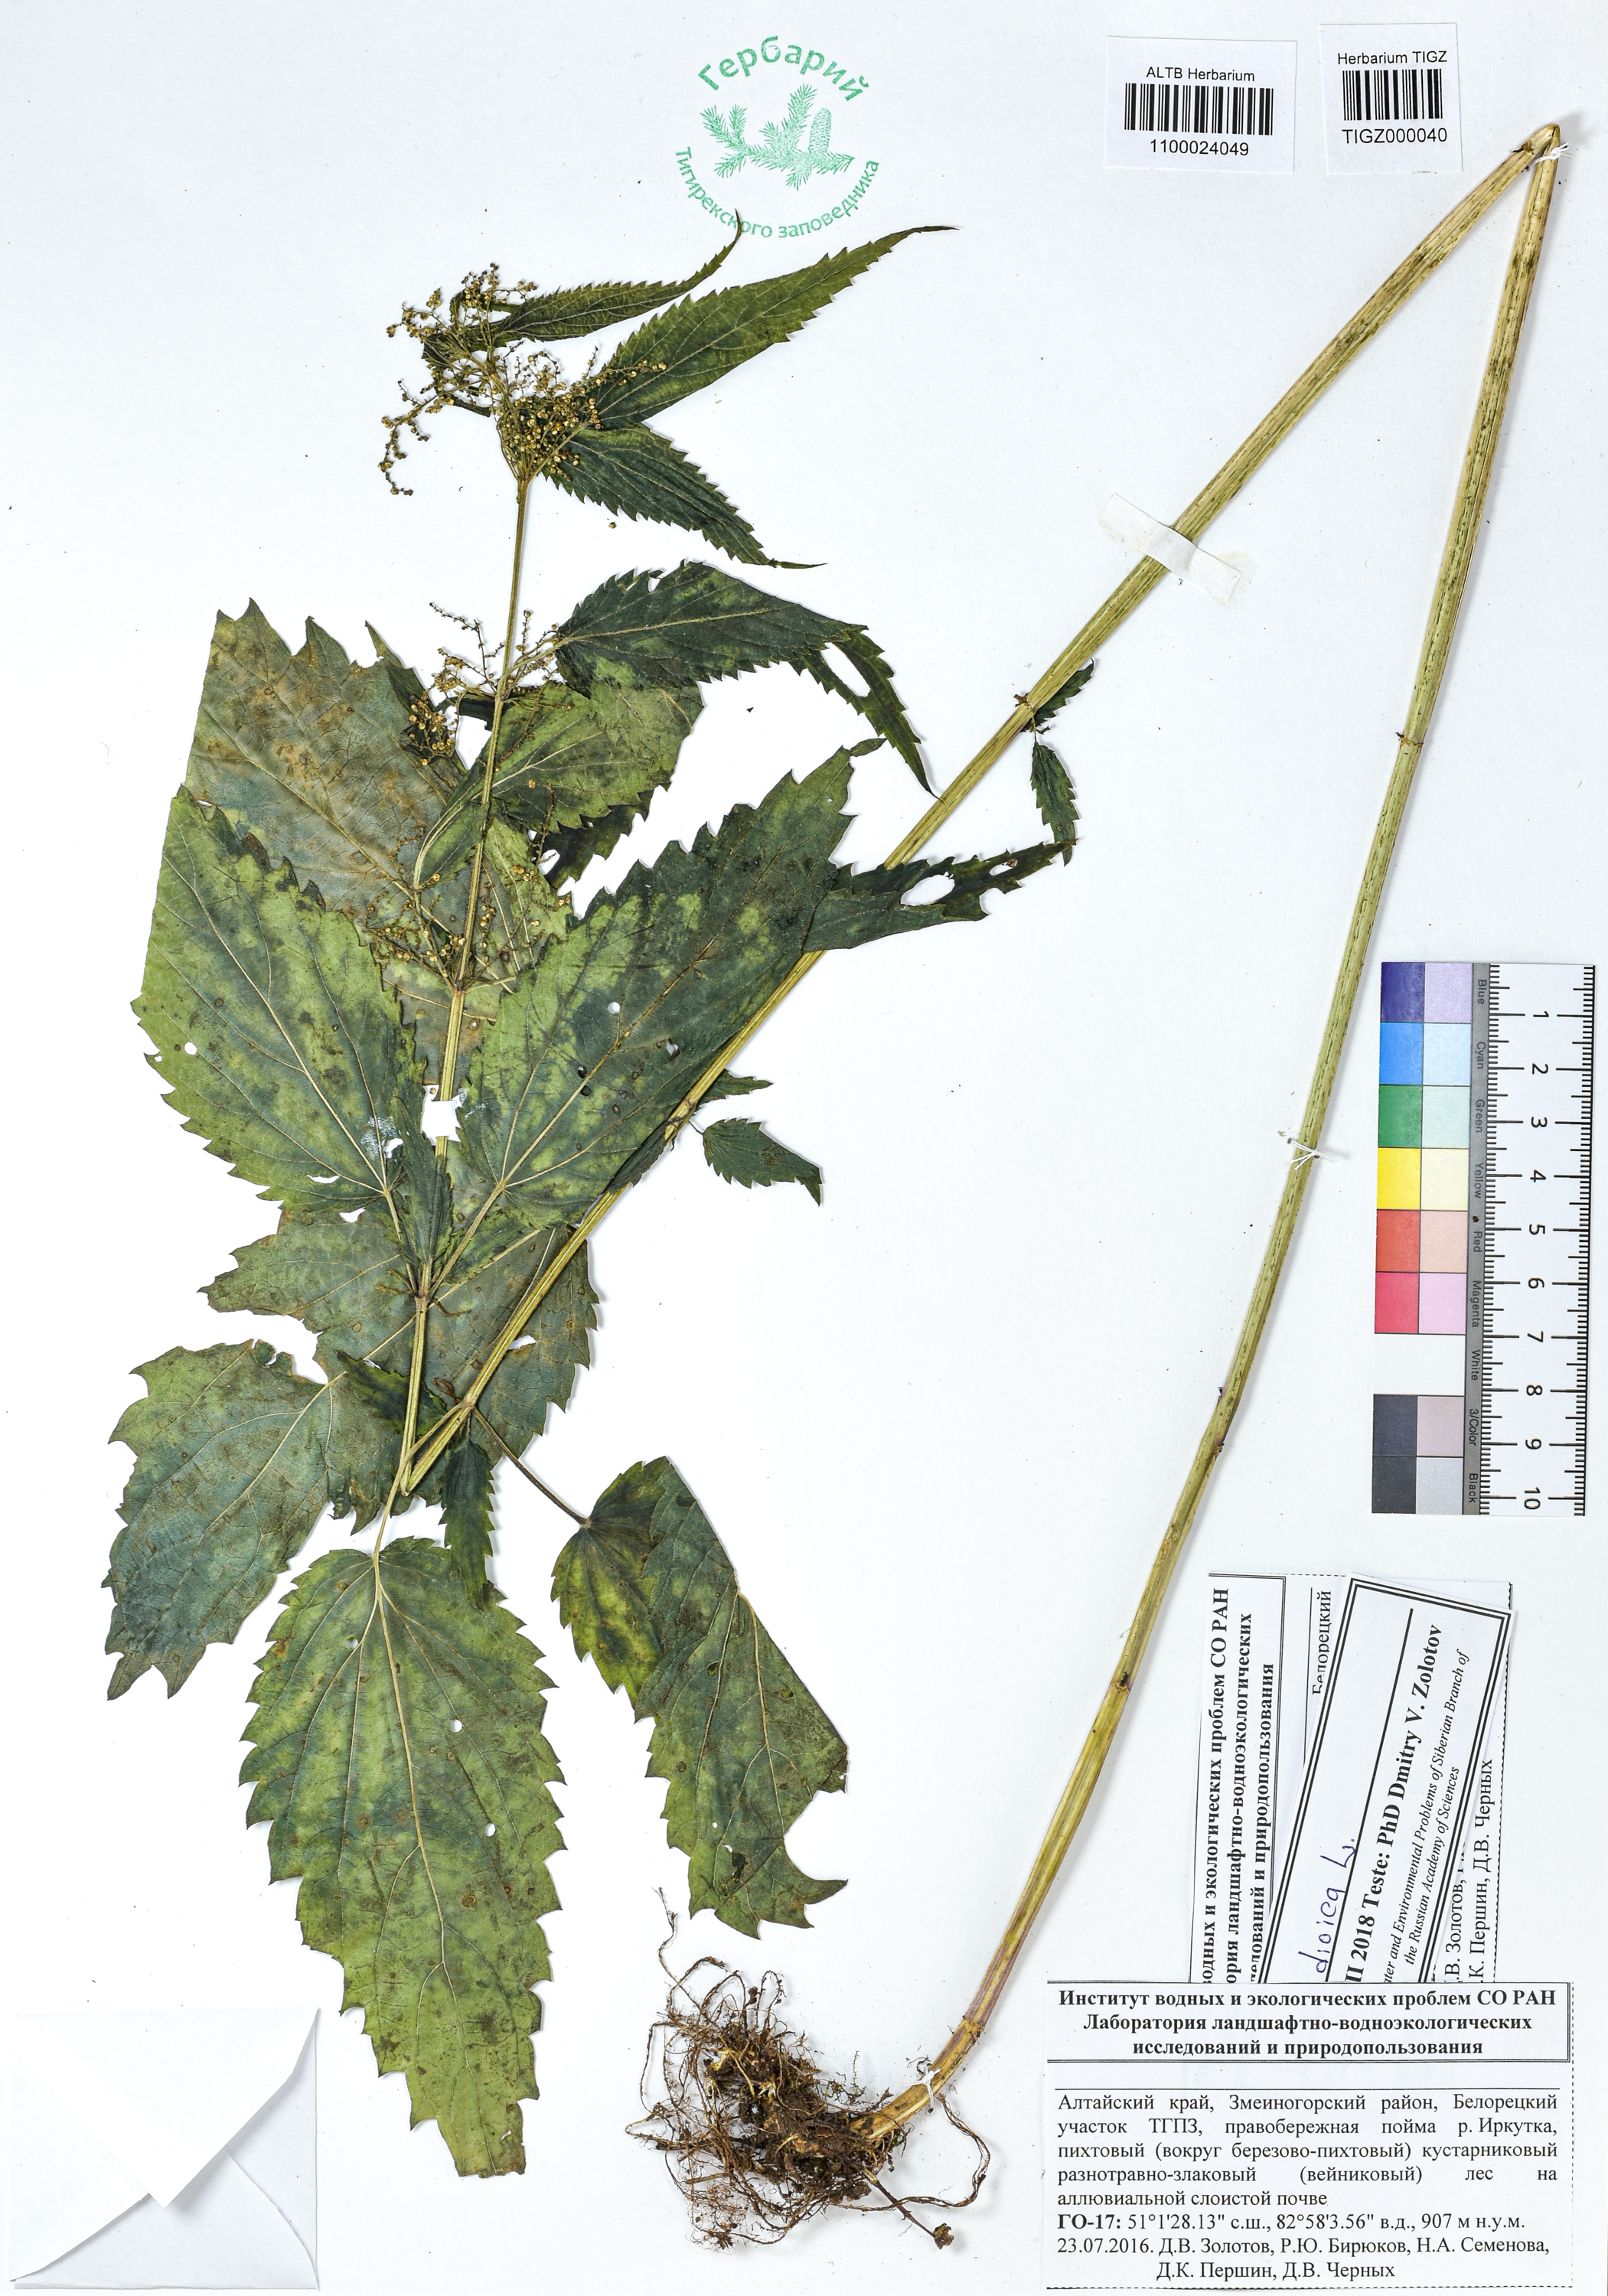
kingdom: Plantae
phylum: Tracheophyta
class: Magnoliopsida
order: Rosales
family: Urticaceae
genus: Urtica
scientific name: Urtica dioica
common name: Common nettle
